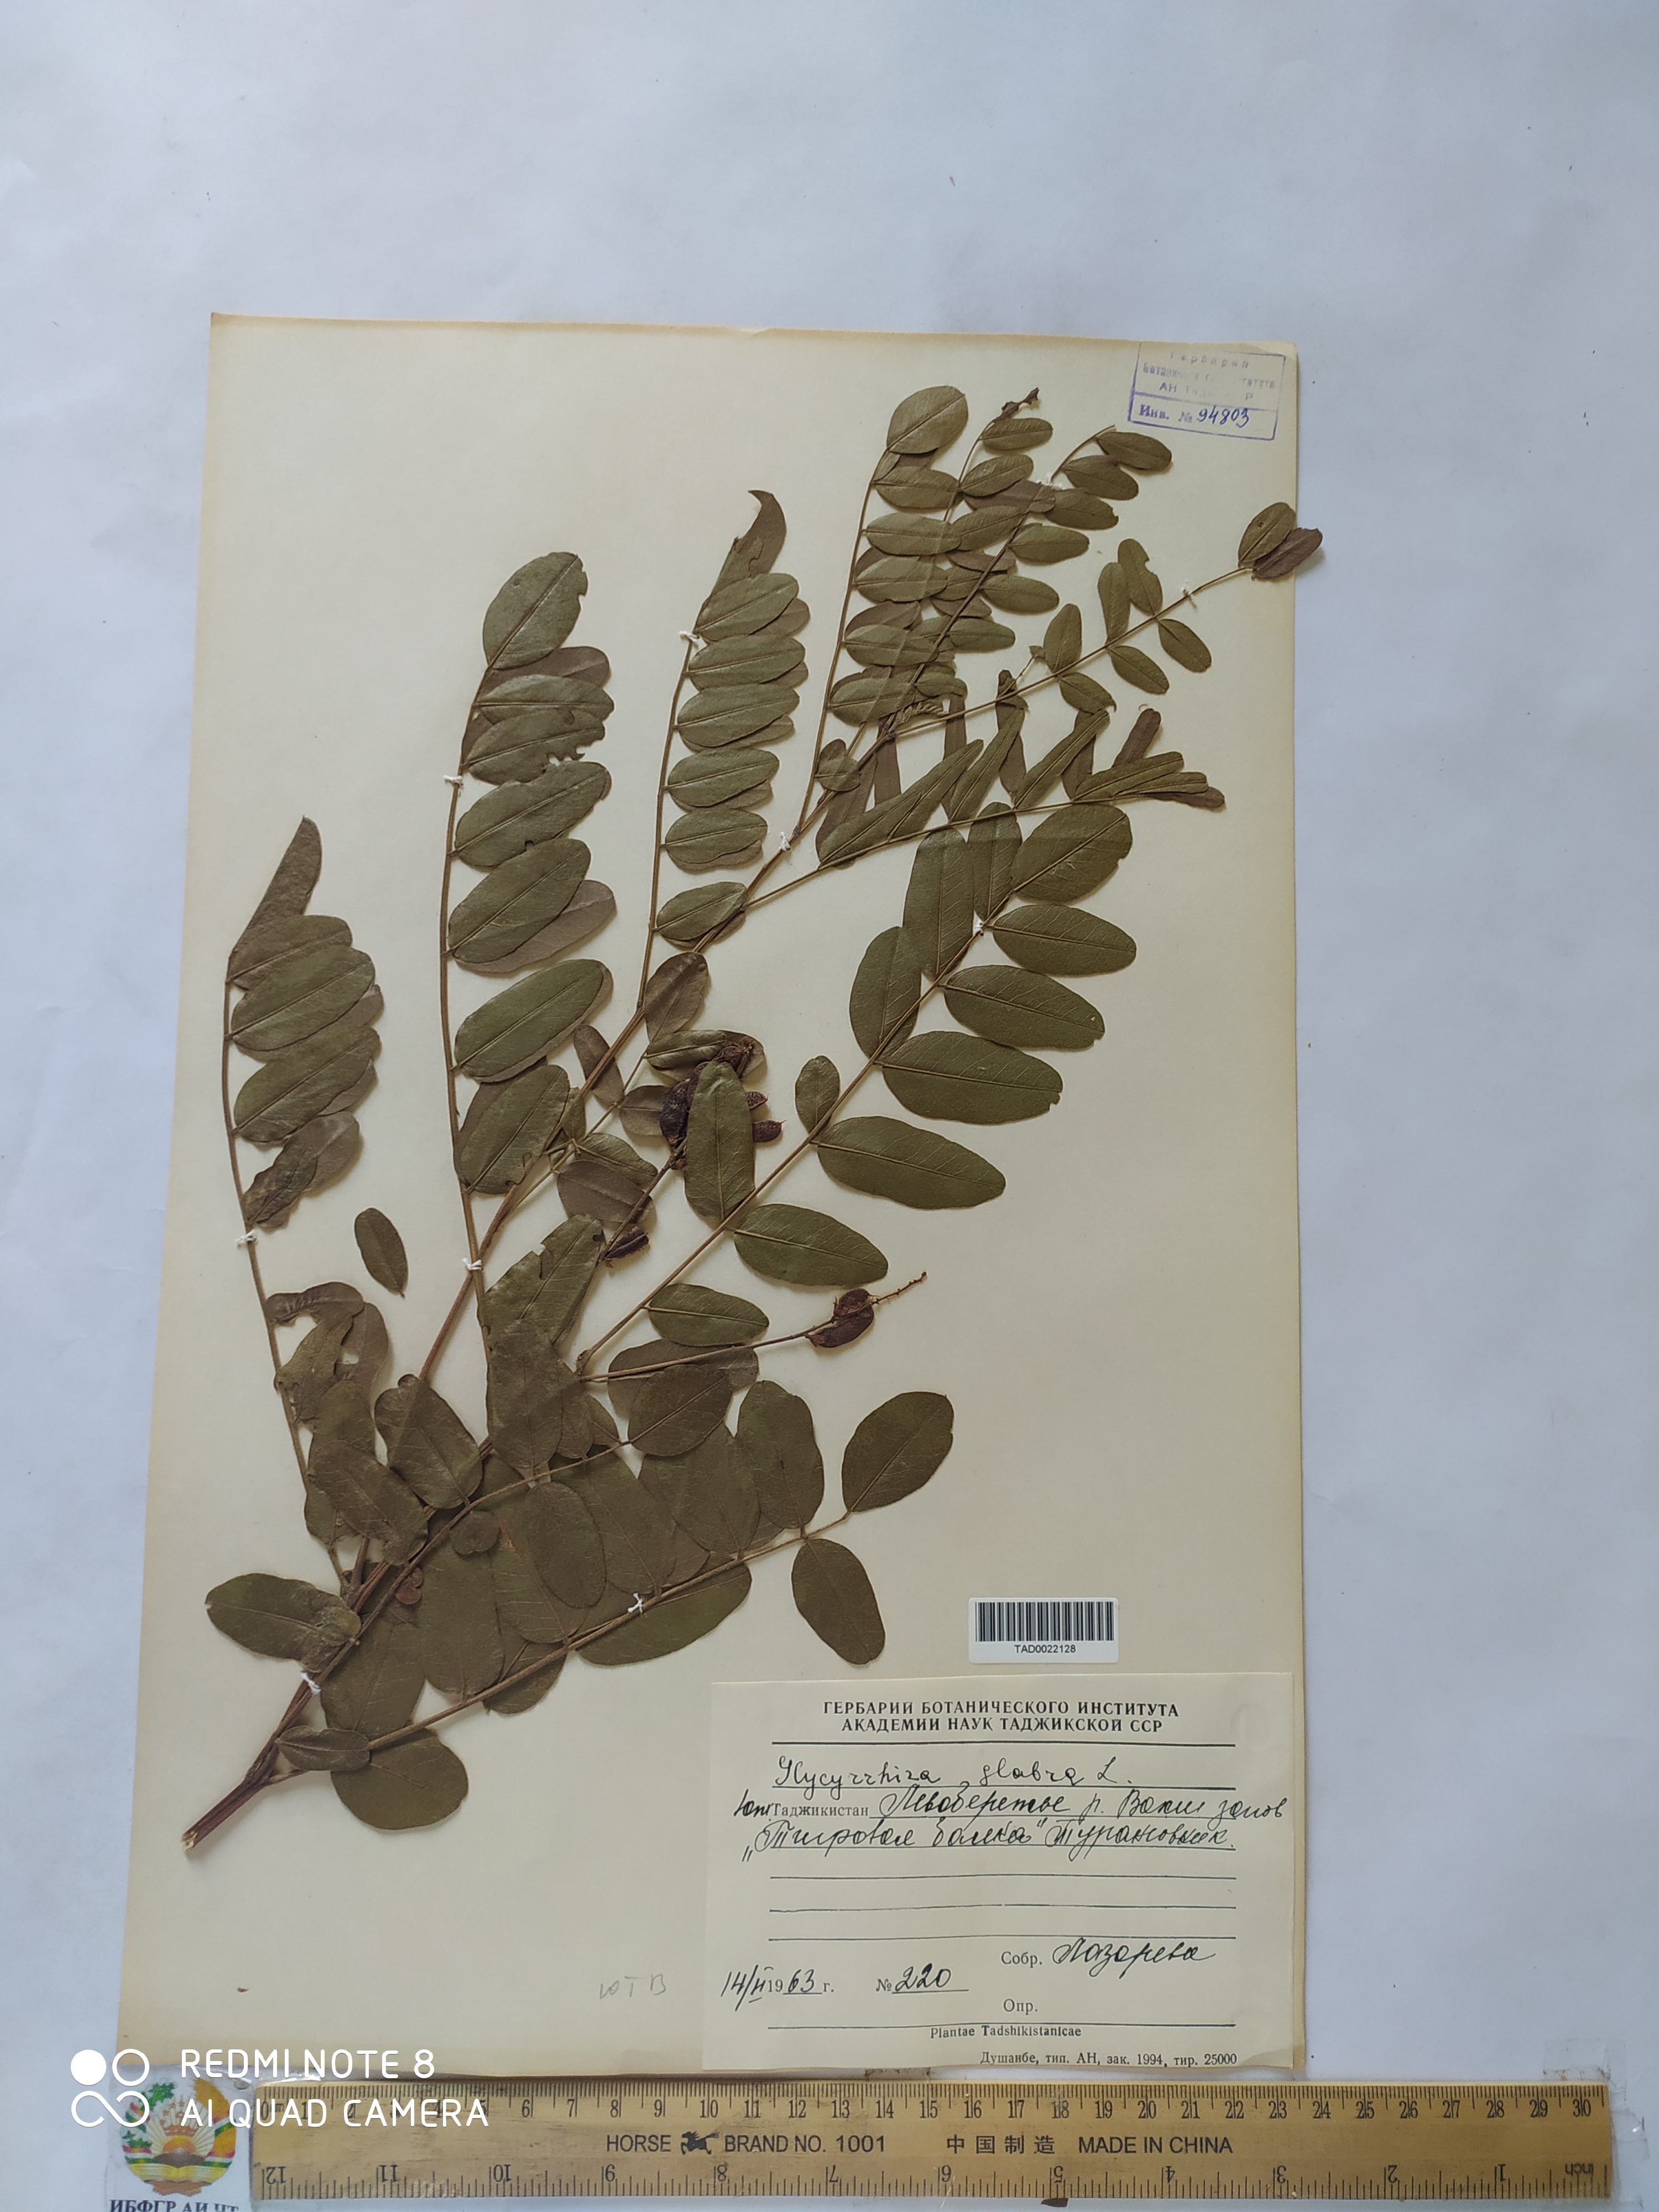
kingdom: Plantae
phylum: Tracheophyta
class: Magnoliopsida
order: Fabales
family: Fabaceae
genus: Glycyrrhiza
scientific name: Glycyrrhiza glabra
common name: Liquorice
